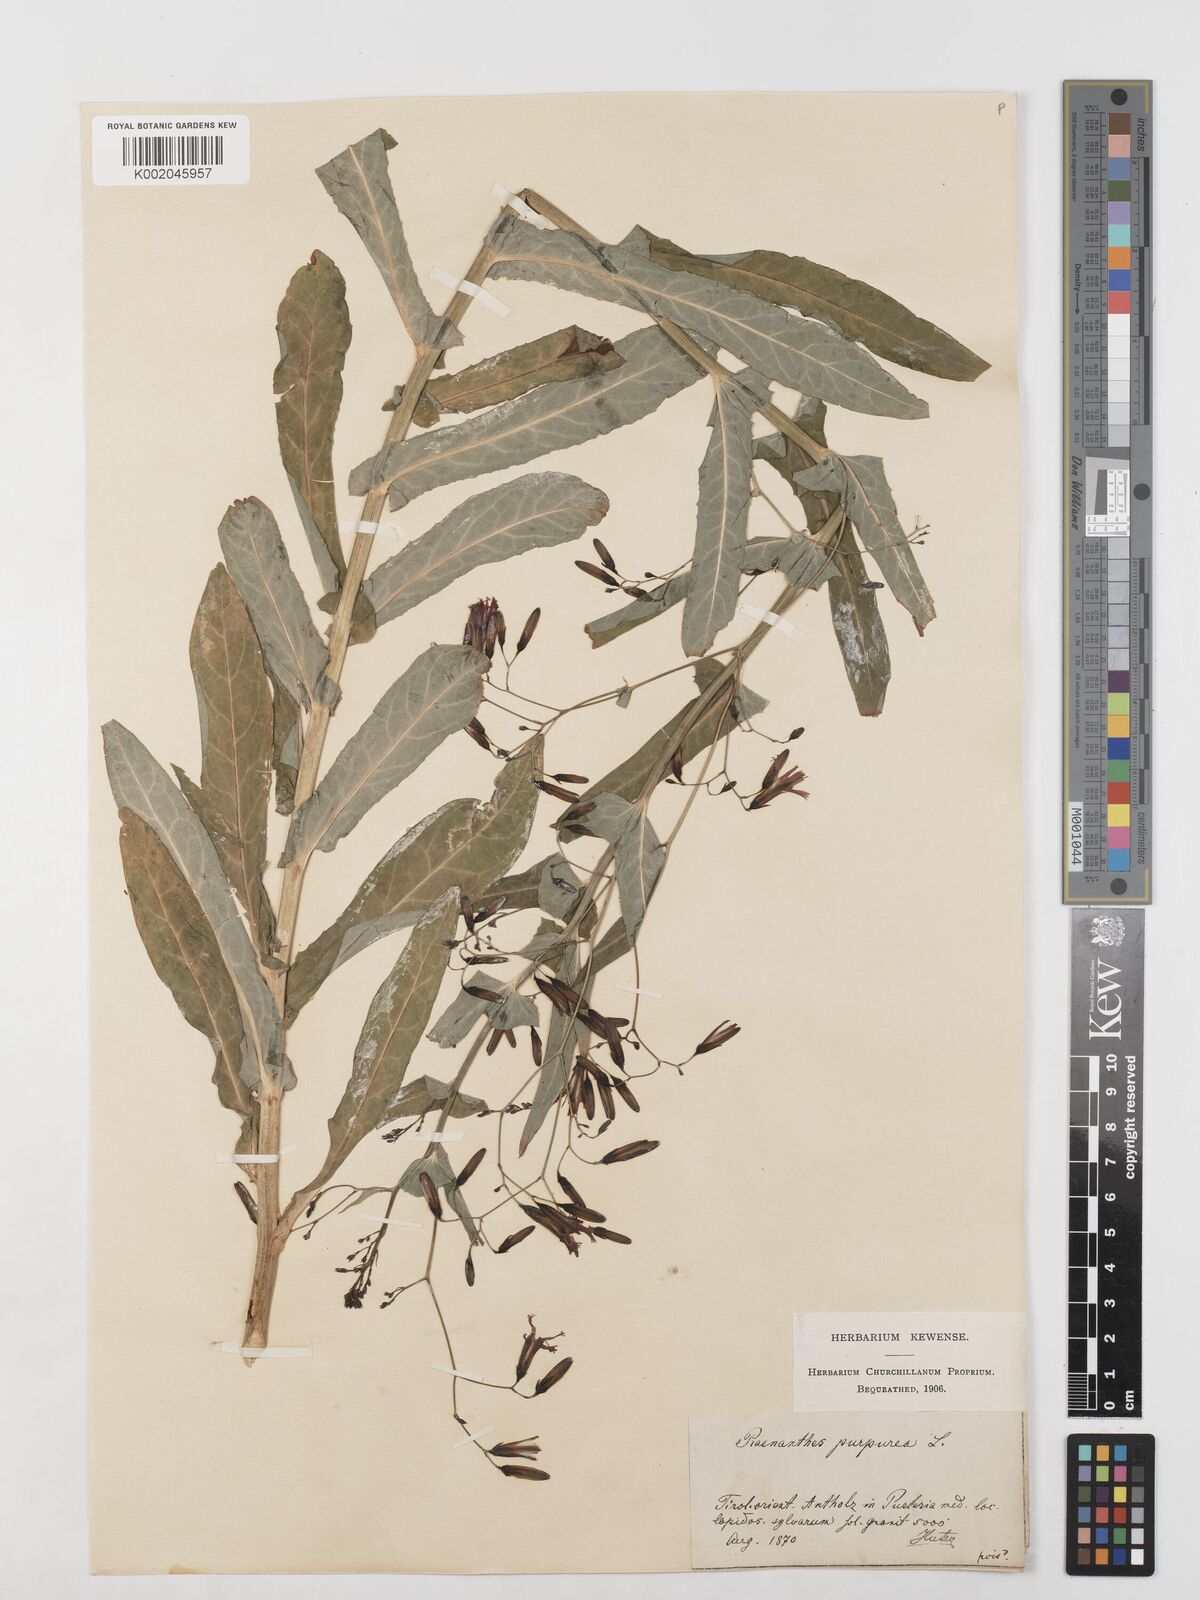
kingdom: Plantae
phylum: Tracheophyta
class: Magnoliopsida
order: Asterales
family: Asteraceae
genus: Prenanthes
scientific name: Prenanthes purpurea
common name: Purple lettuce
